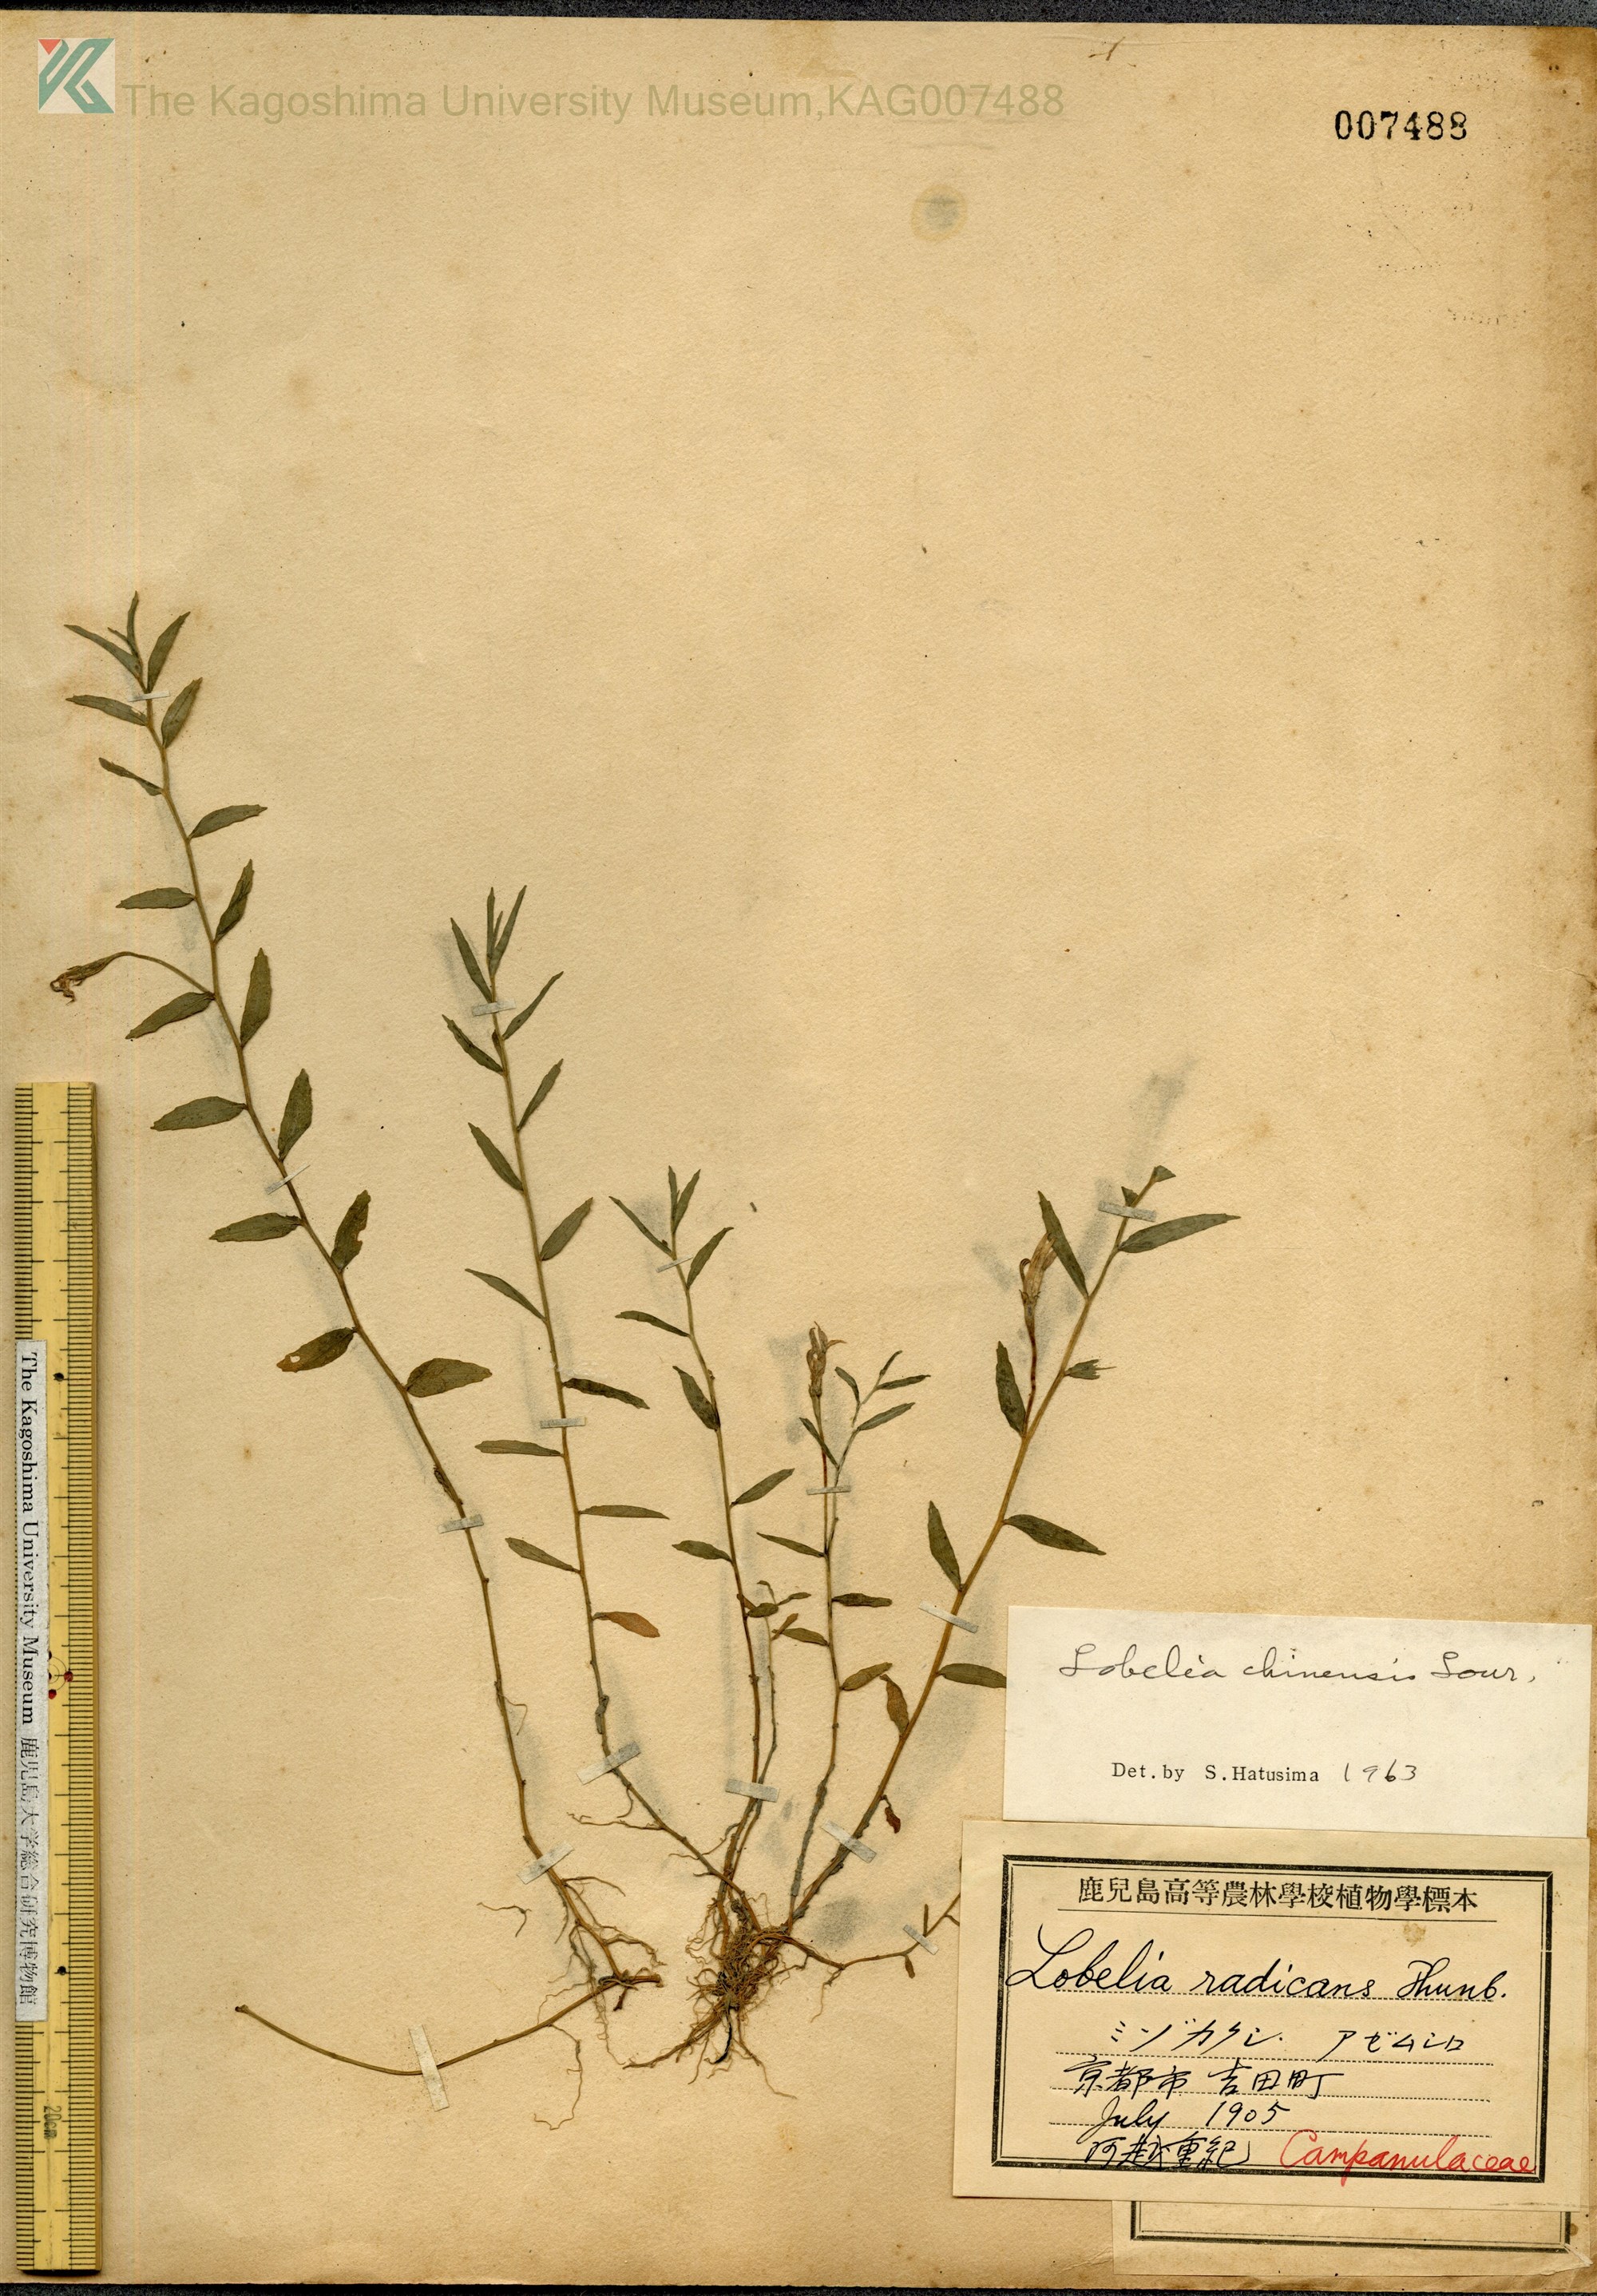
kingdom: Plantae
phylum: Tracheophyta
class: Magnoliopsida
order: Asterales
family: Campanulaceae
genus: Lobelia
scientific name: Lobelia chinensis
